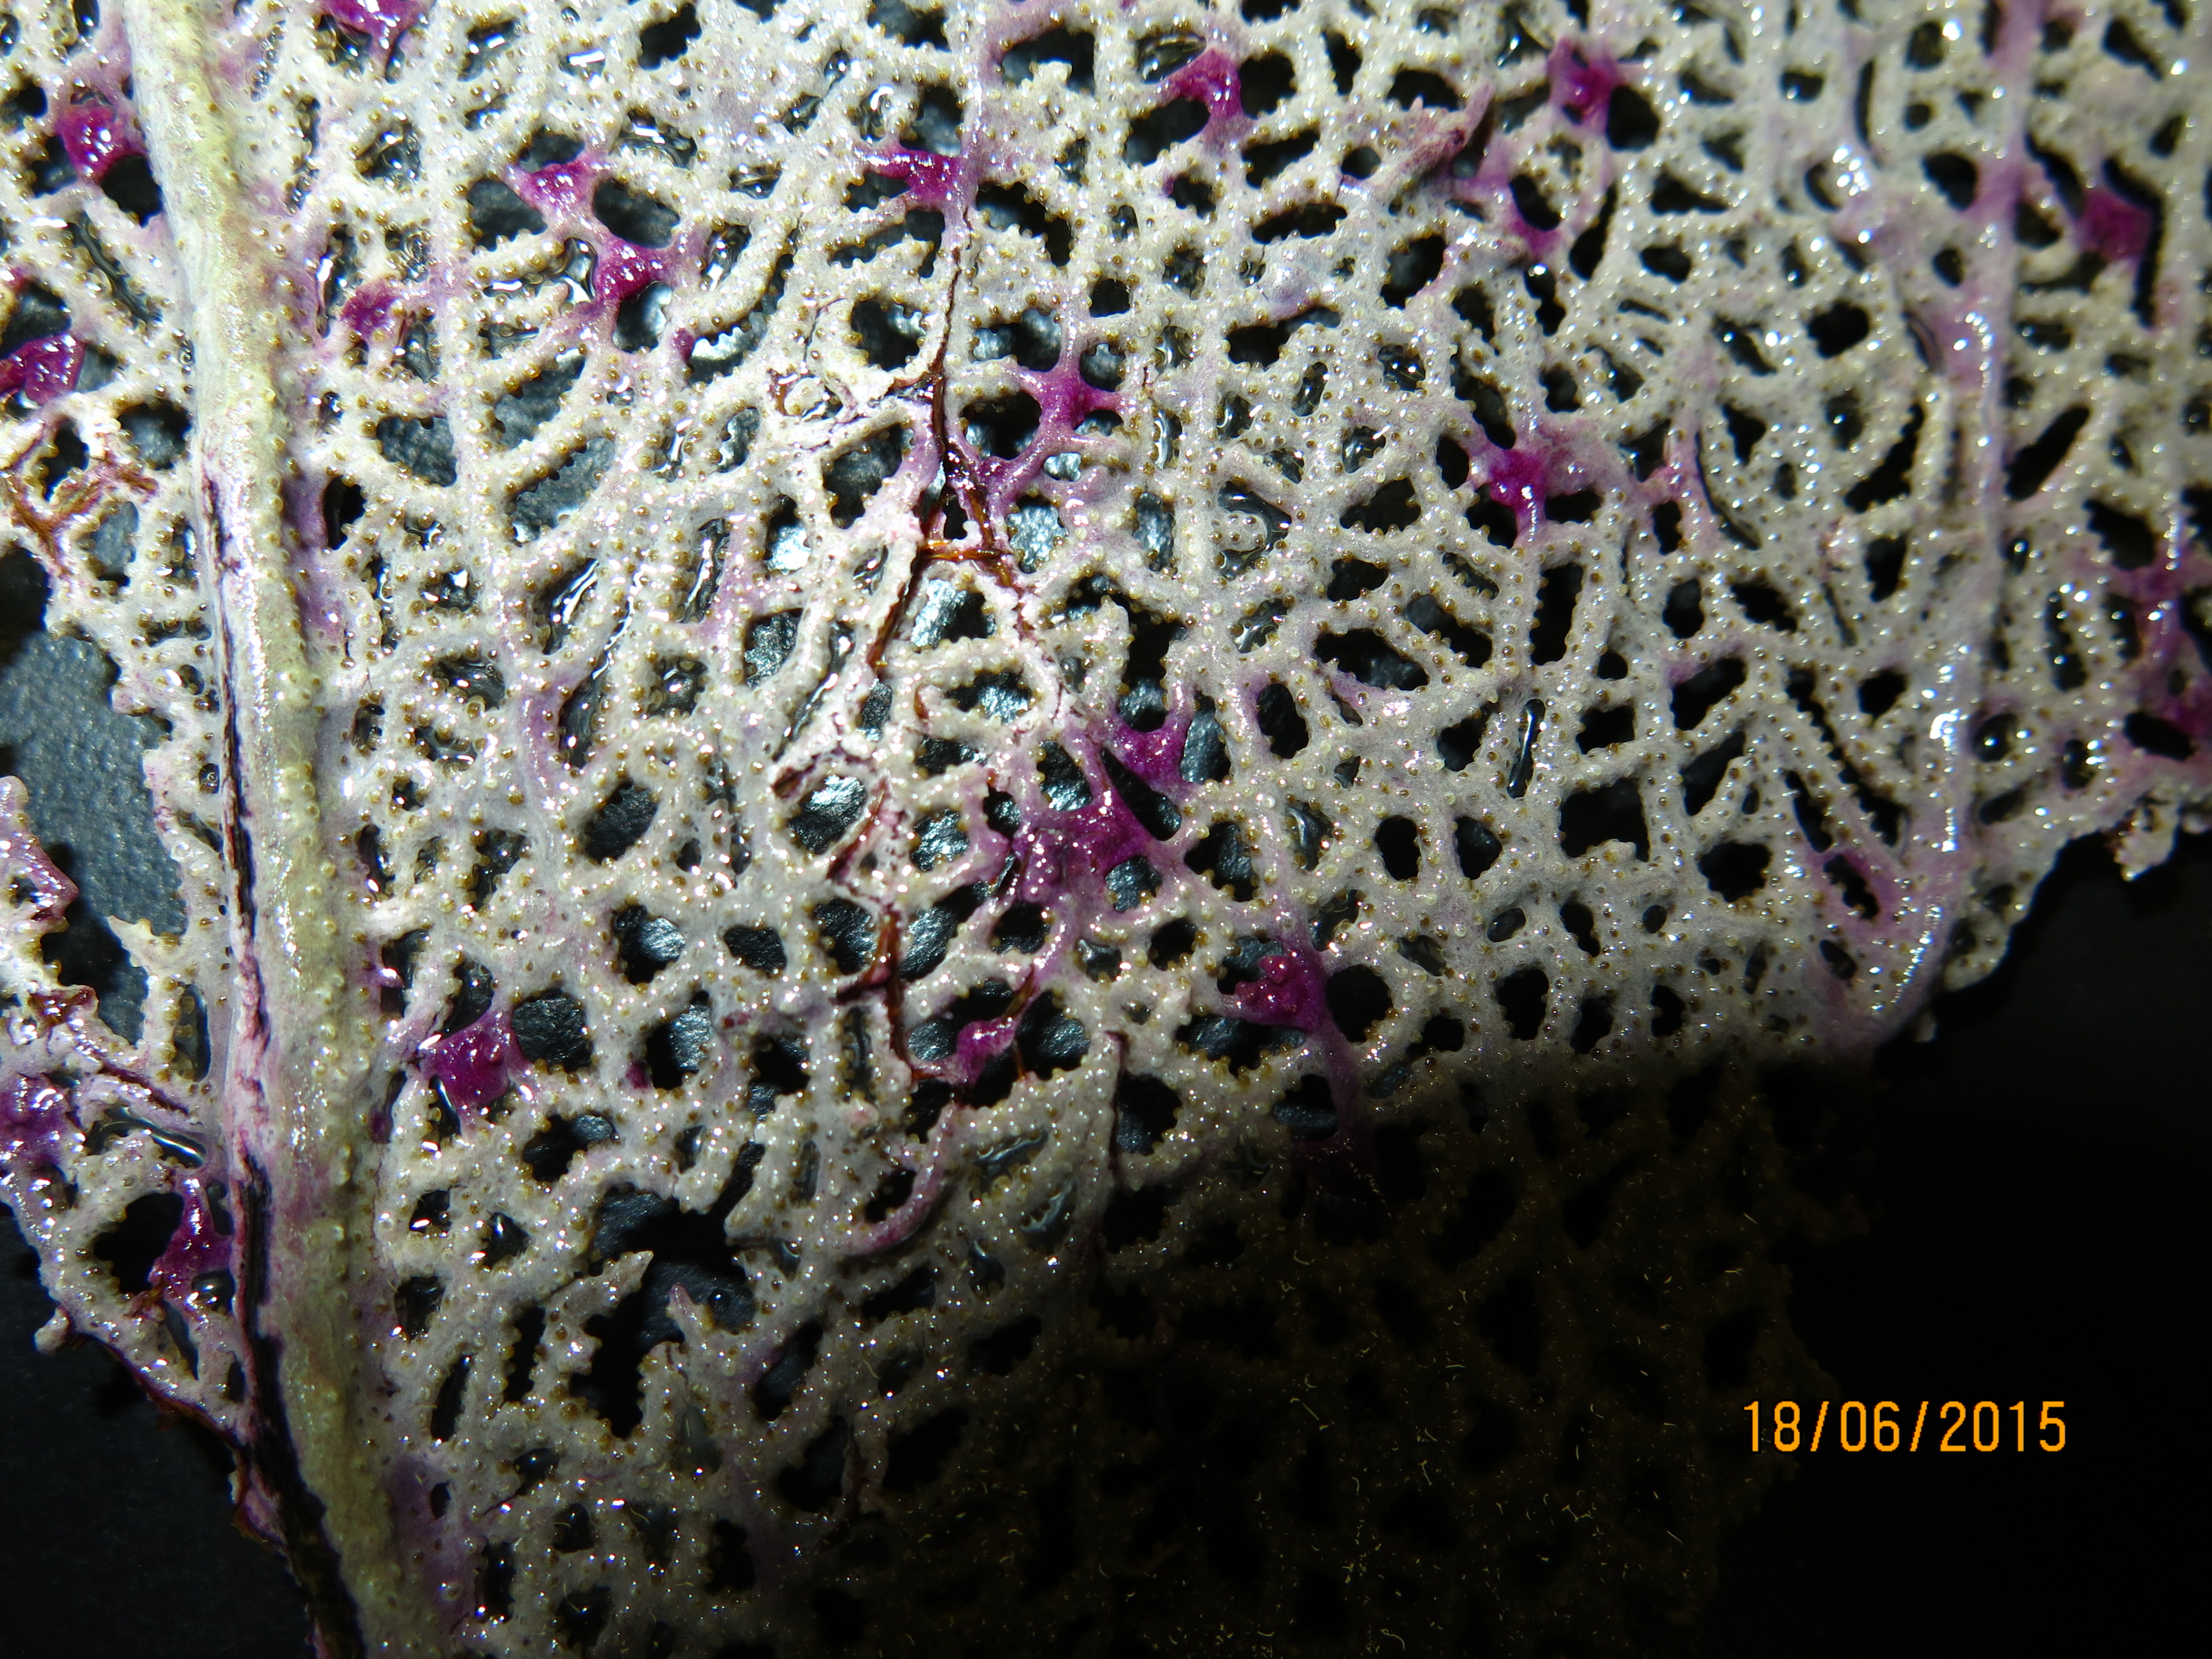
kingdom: Animalia
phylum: Cnidaria
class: Anthozoa
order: Malacalcyonacea
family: Gorgoniidae
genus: Gorgonia
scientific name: Gorgonia ventalina
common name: Common sea fan
